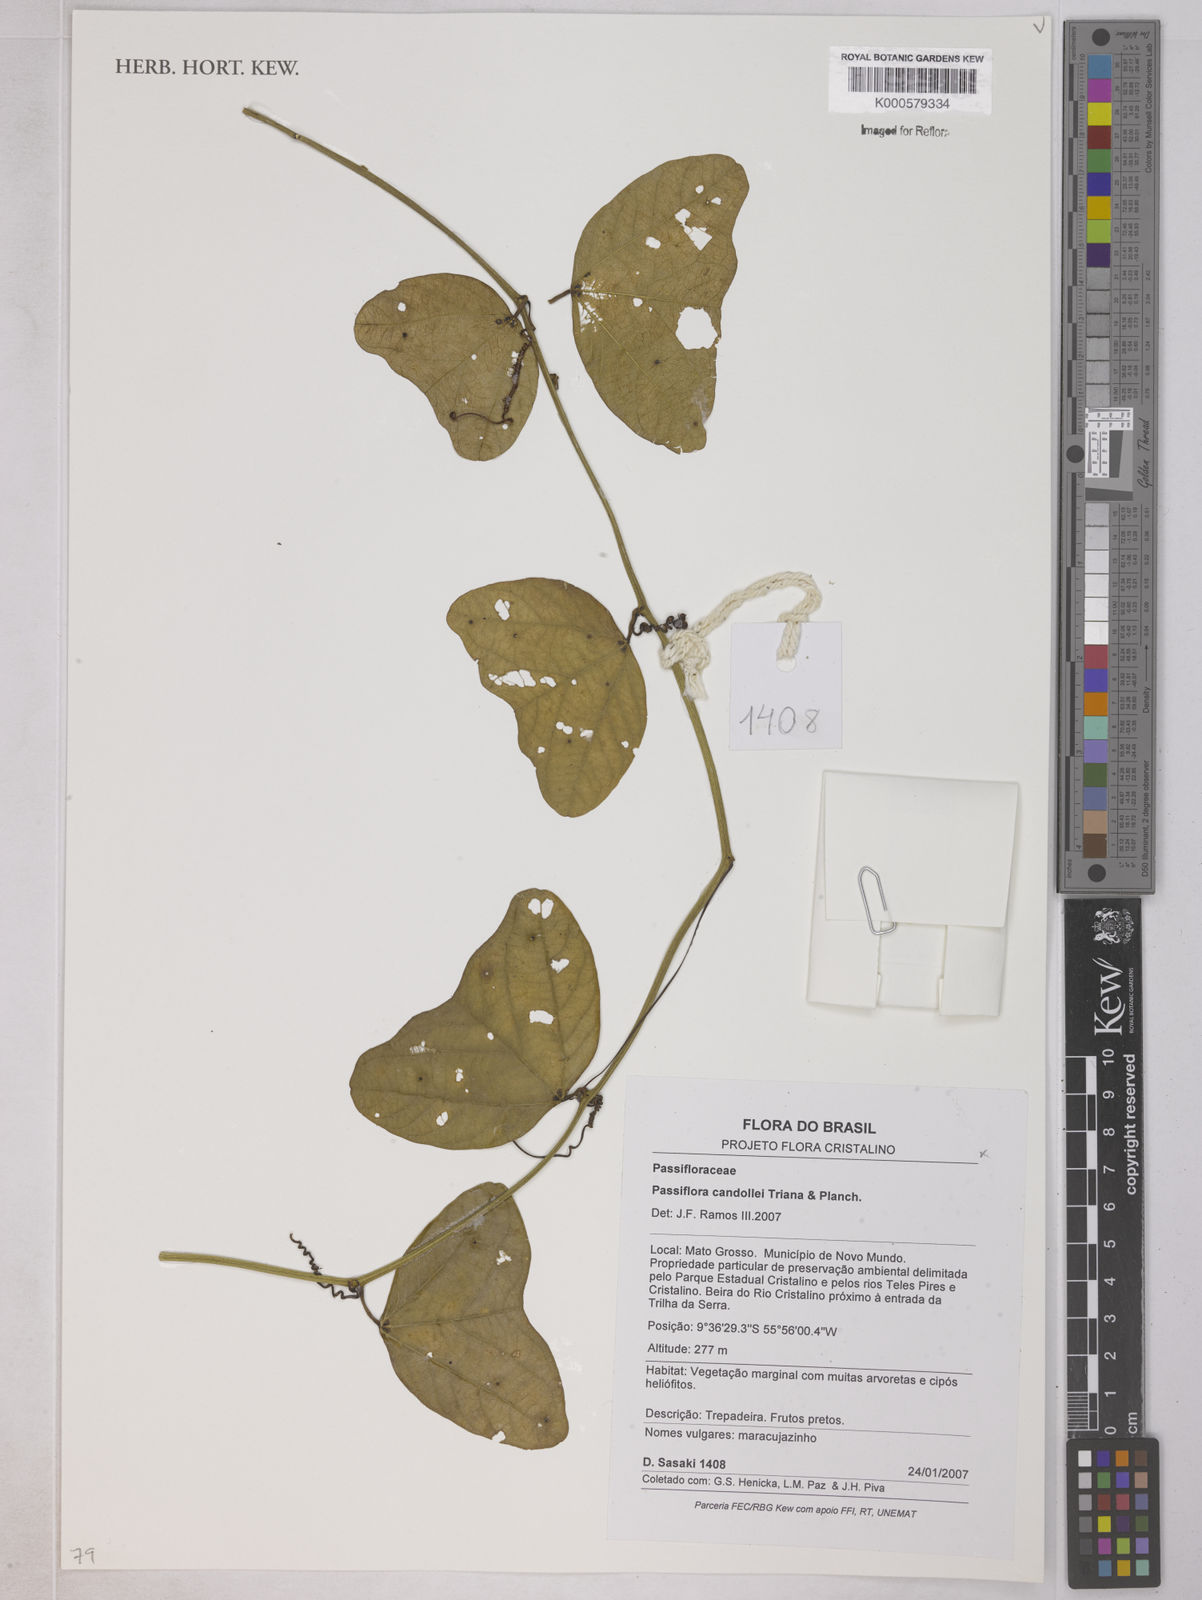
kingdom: Plantae
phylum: Tracheophyta
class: Magnoliopsida
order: Malpighiales
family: Passifloraceae
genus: Passiflora
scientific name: Passiflora candollei
